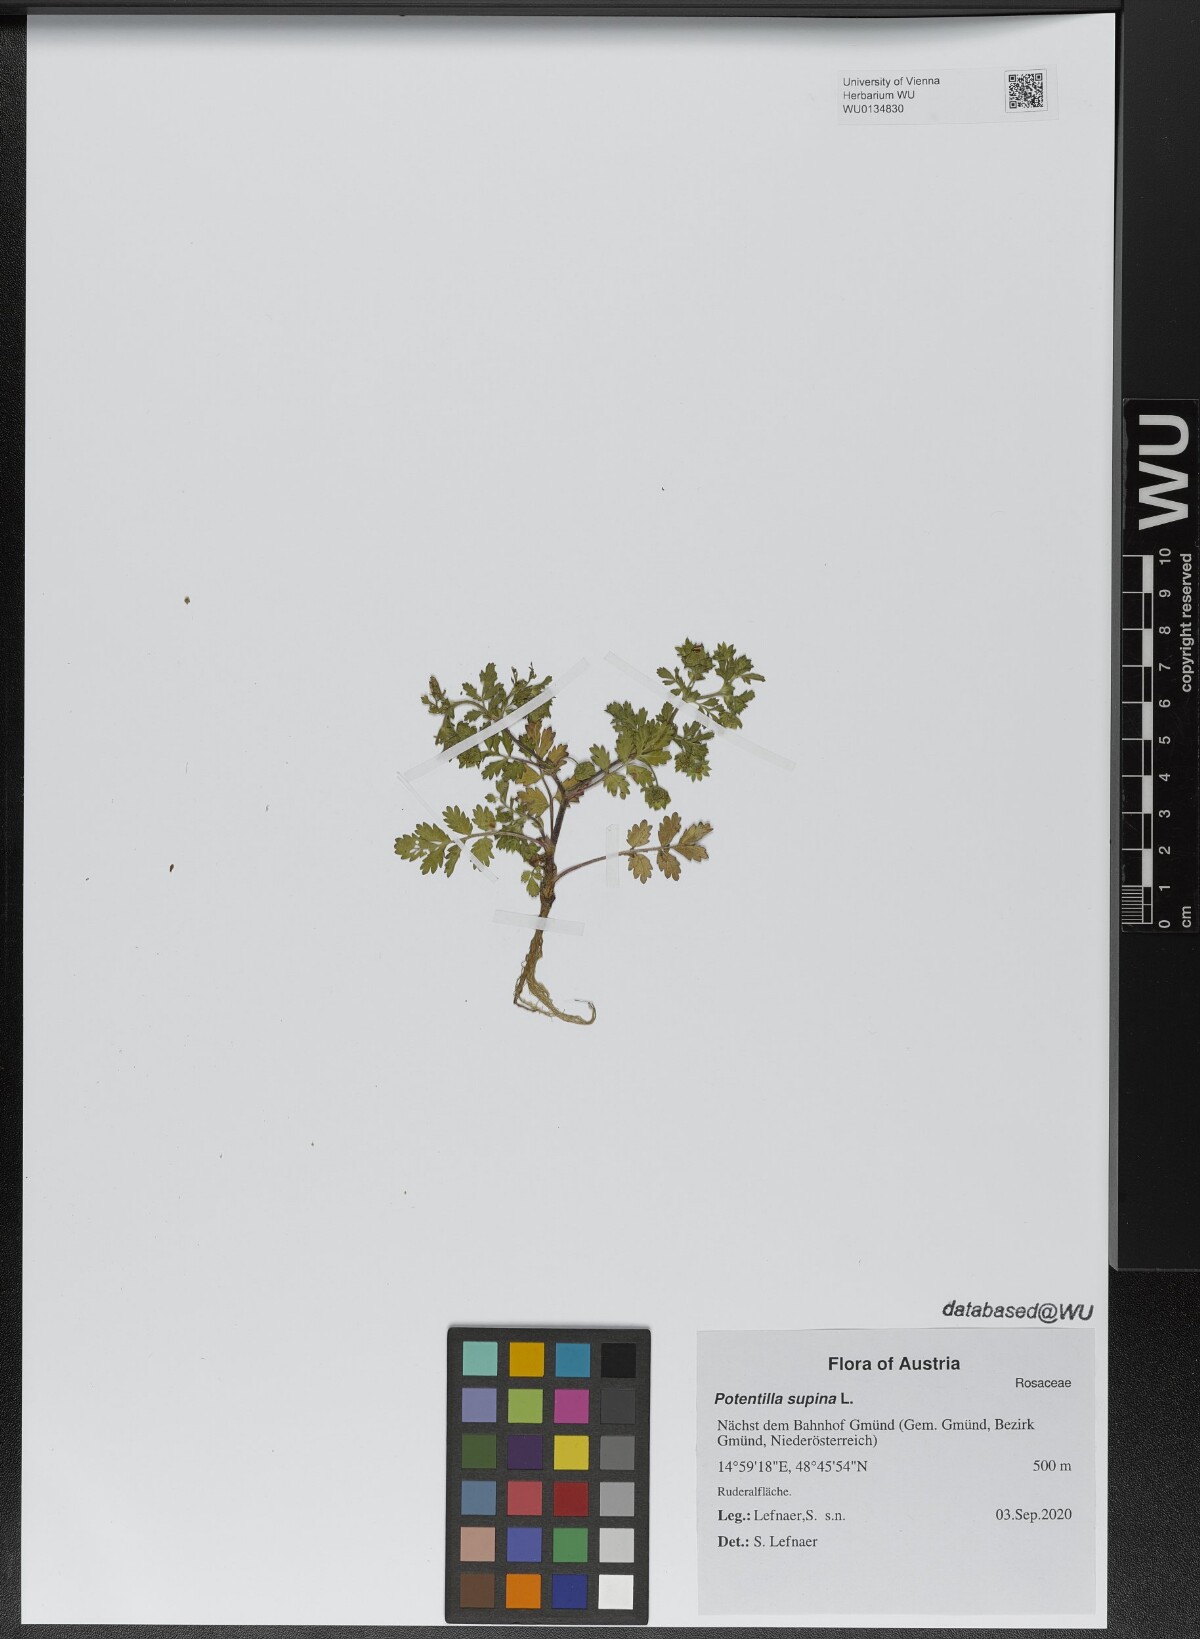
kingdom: Plantae
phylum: Tracheophyta
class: Magnoliopsida
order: Rosales
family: Rosaceae
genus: Potentilla
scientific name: Potentilla supina
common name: Prostrate cinquefoil
